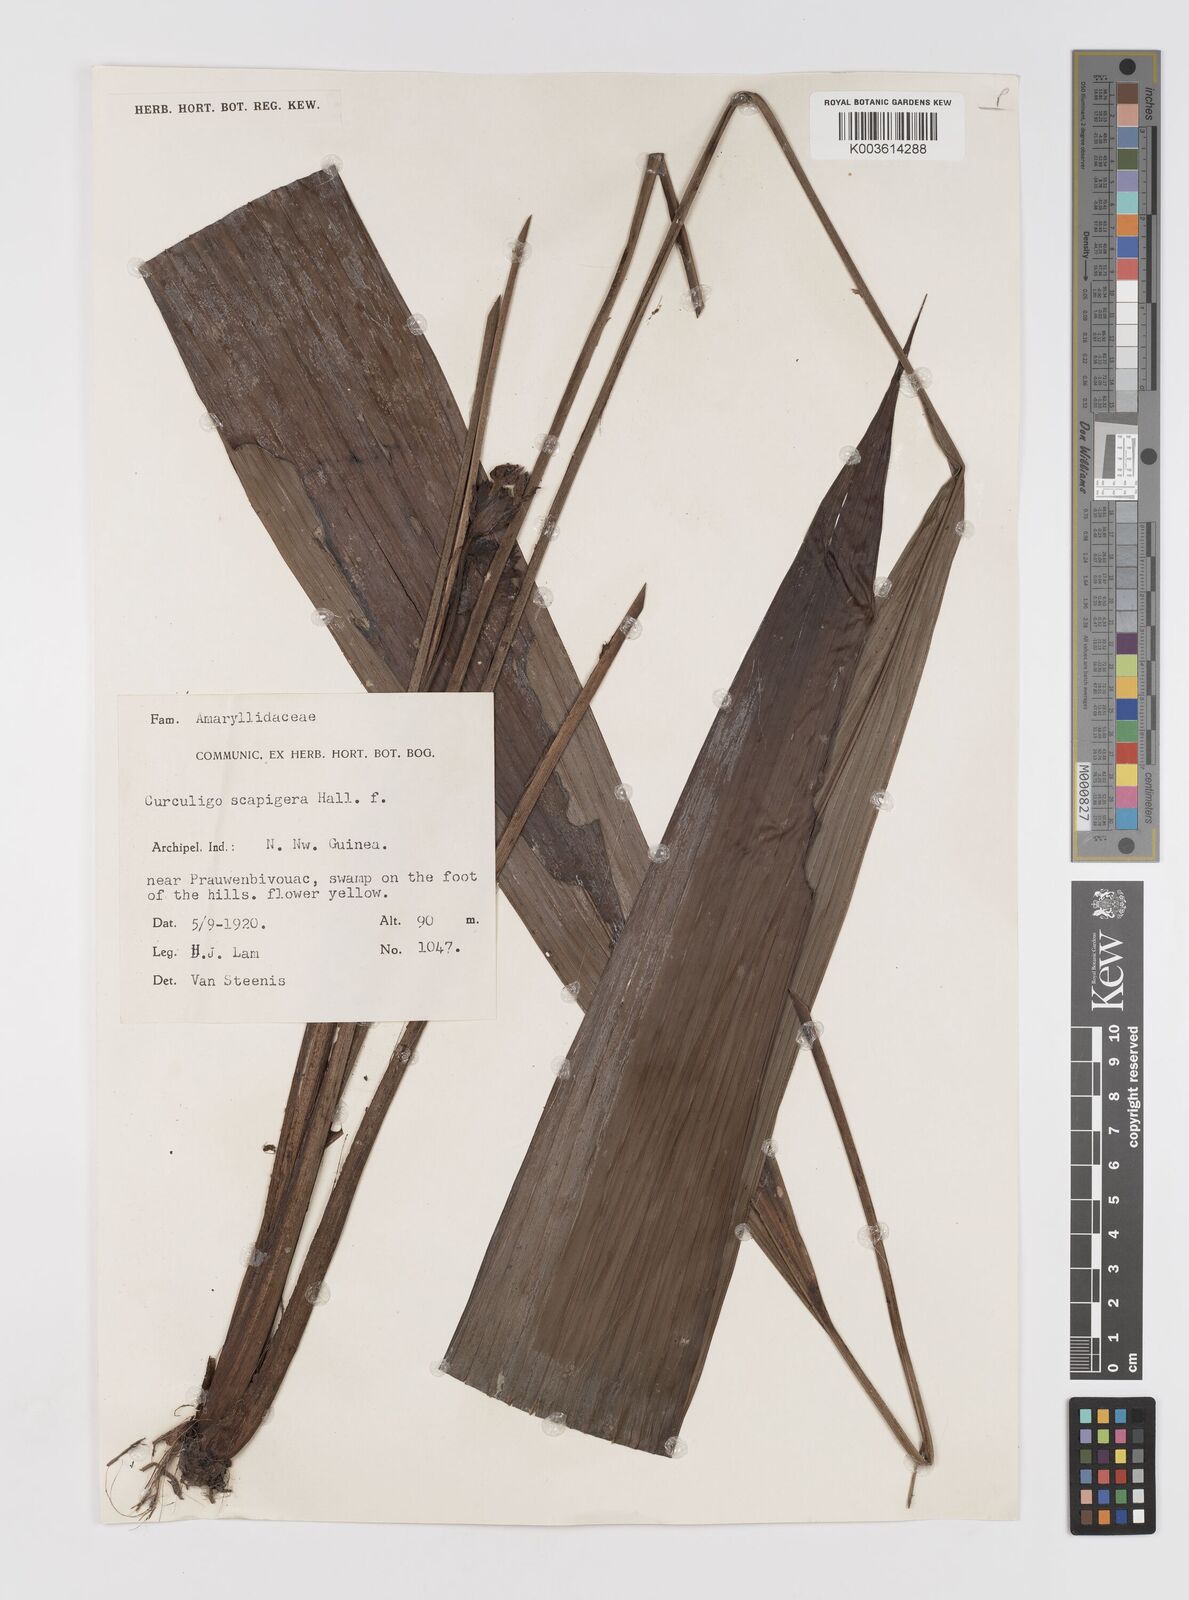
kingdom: Plantae
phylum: Tracheophyta
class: Liliopsida
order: Asparagales
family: Hypoxidaceae
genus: Curculigo
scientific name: Curculigo erecta
